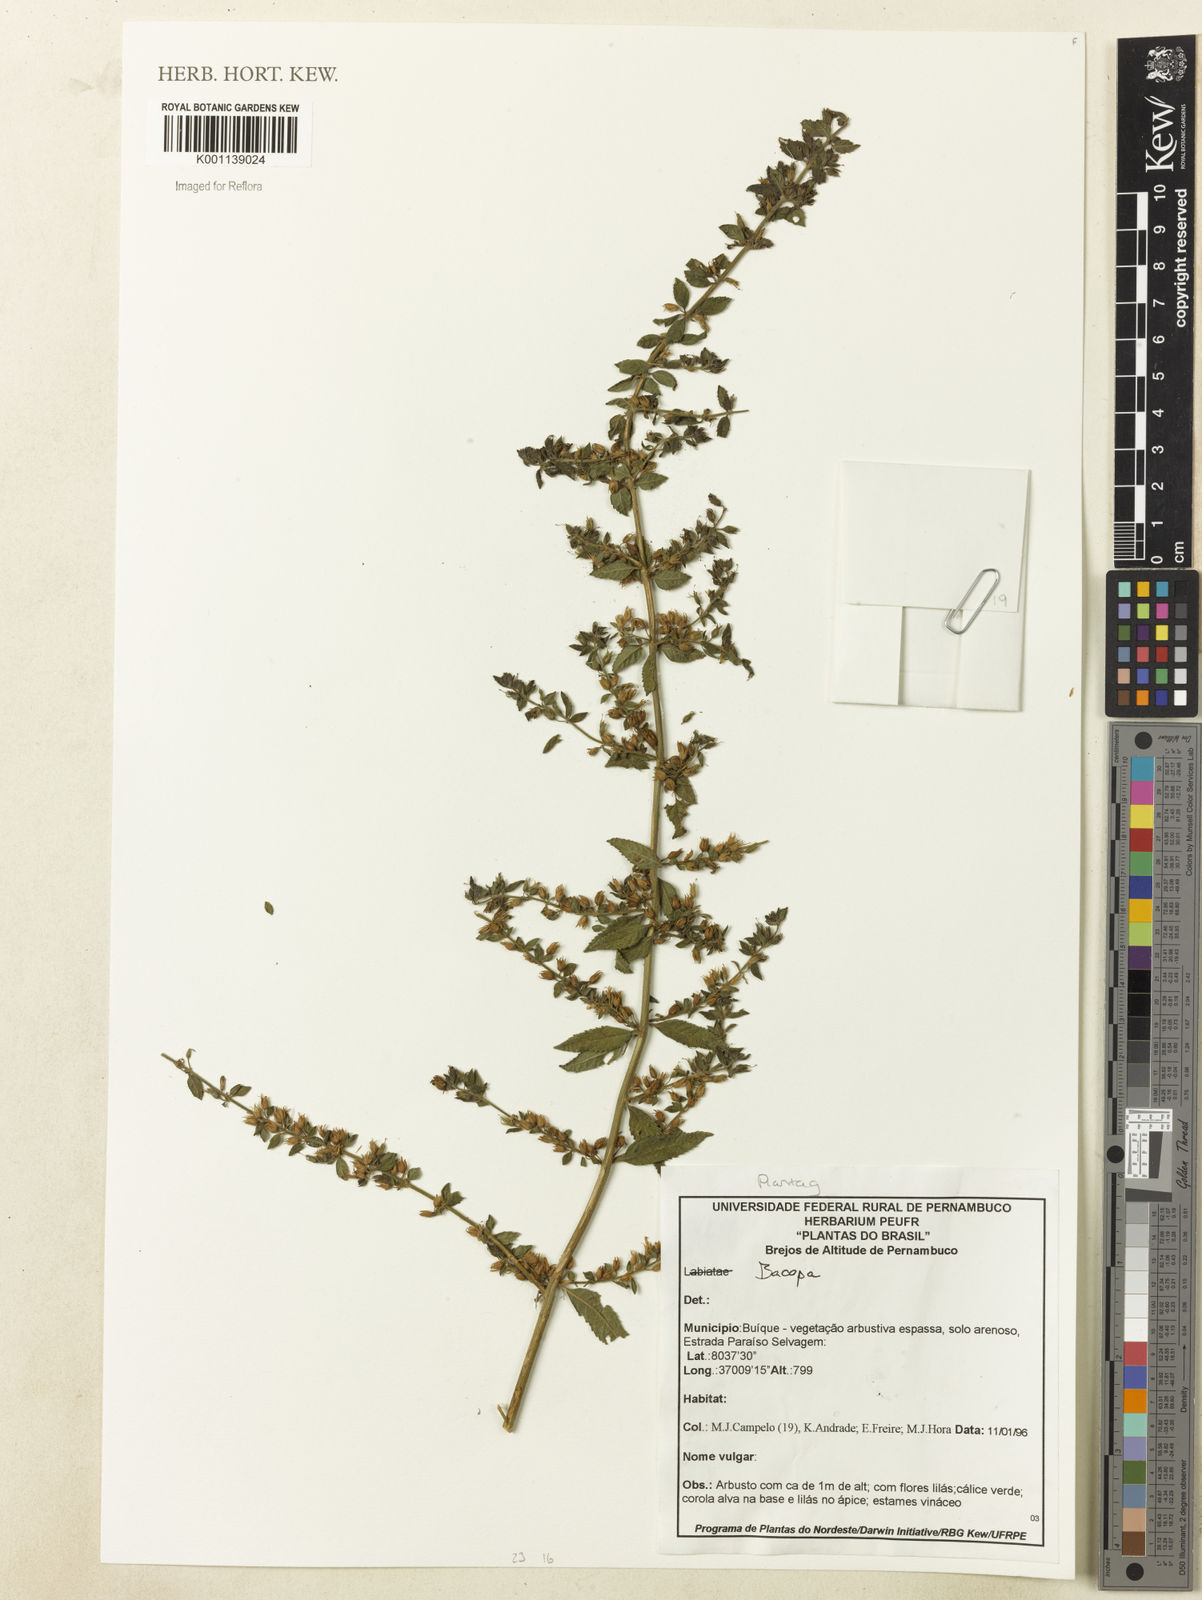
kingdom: Plantae
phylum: Tracheophyta
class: Magnoliopsida
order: Lamiales
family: Plantaginaceae
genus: Stemodia
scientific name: Stemodia foliosa
